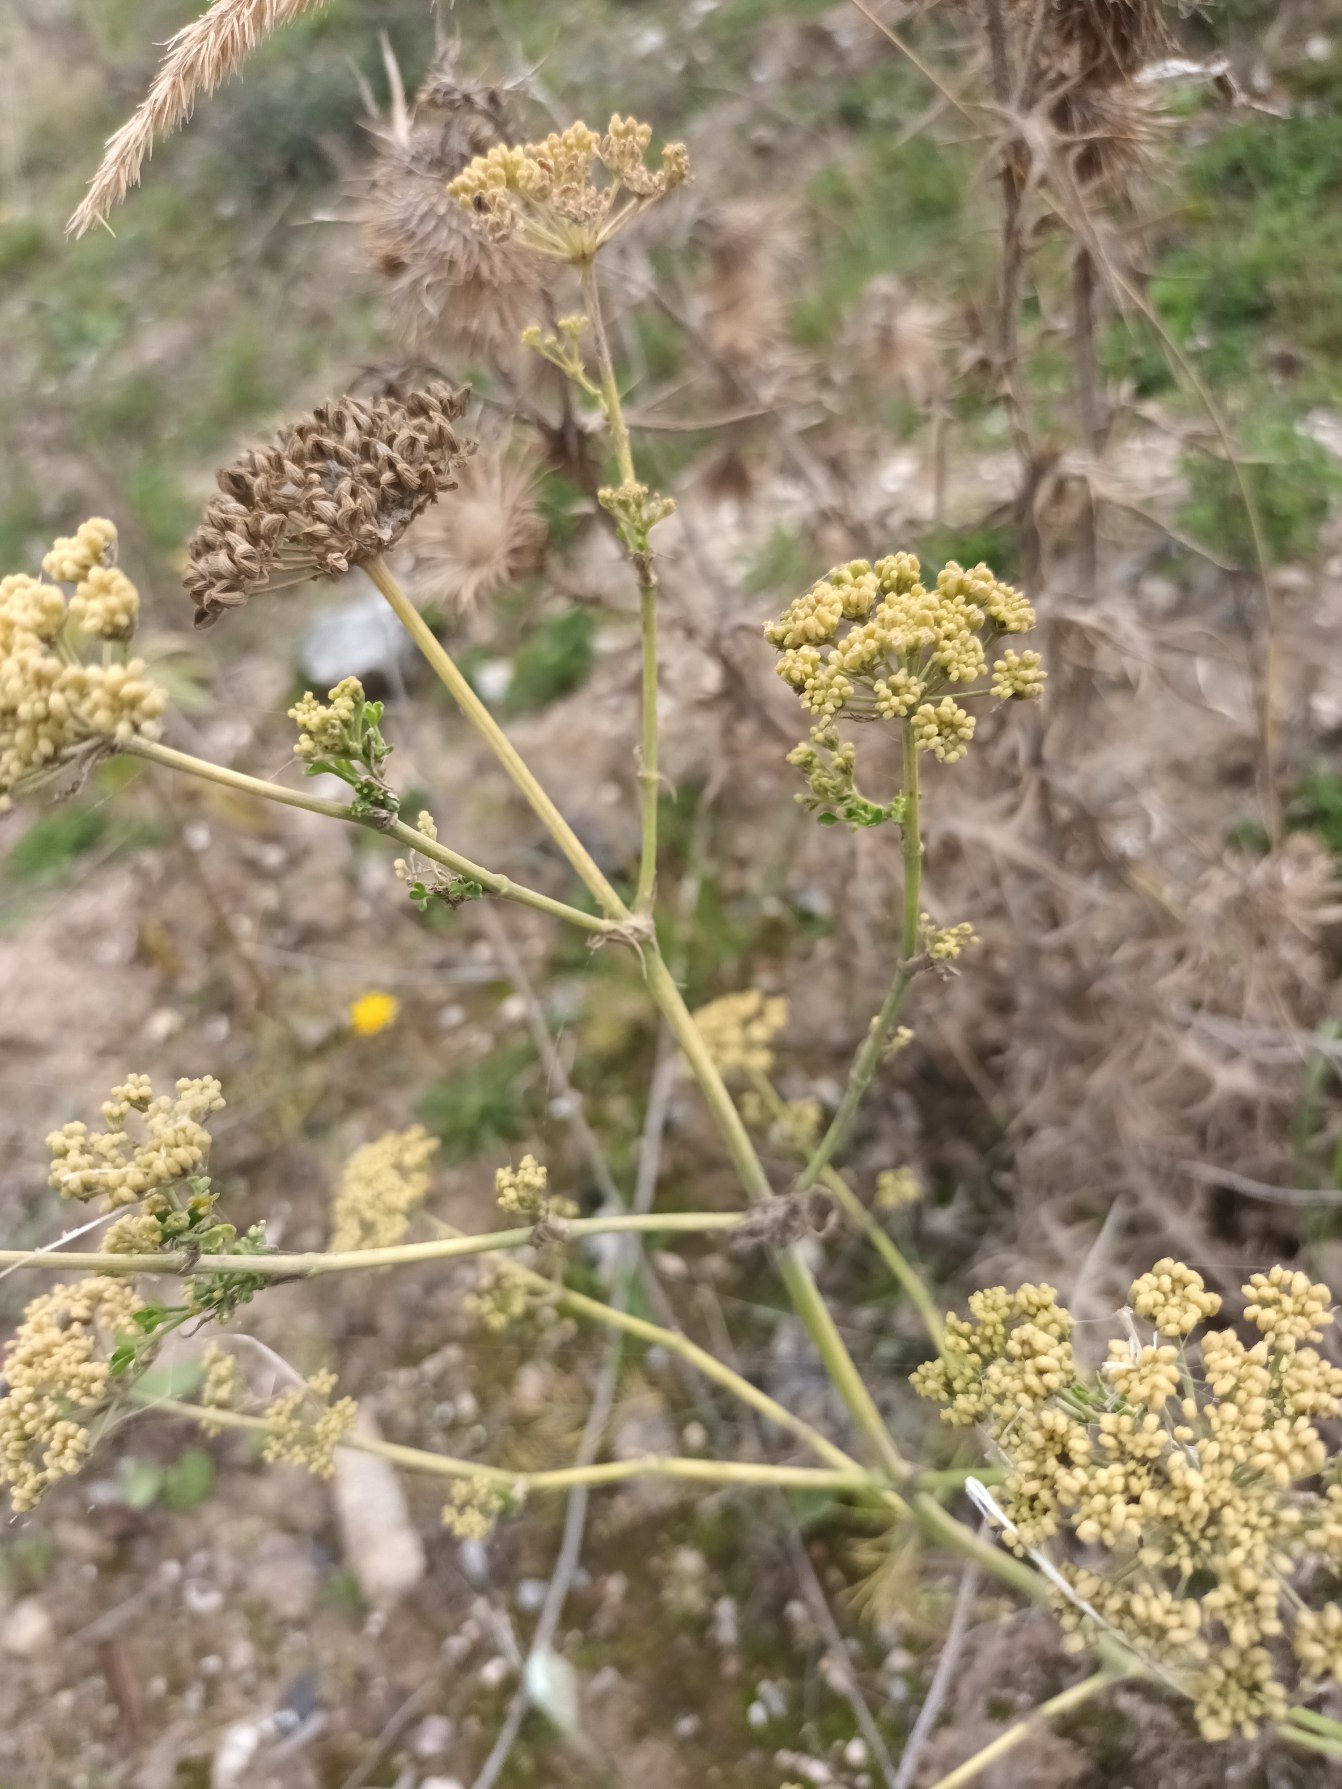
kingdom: Plantae
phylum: Tracheophyta
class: Magnoliopsida
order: Apiales
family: Apiaceae
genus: Petroselinum
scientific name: Petroselinum crispum
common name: Persille
